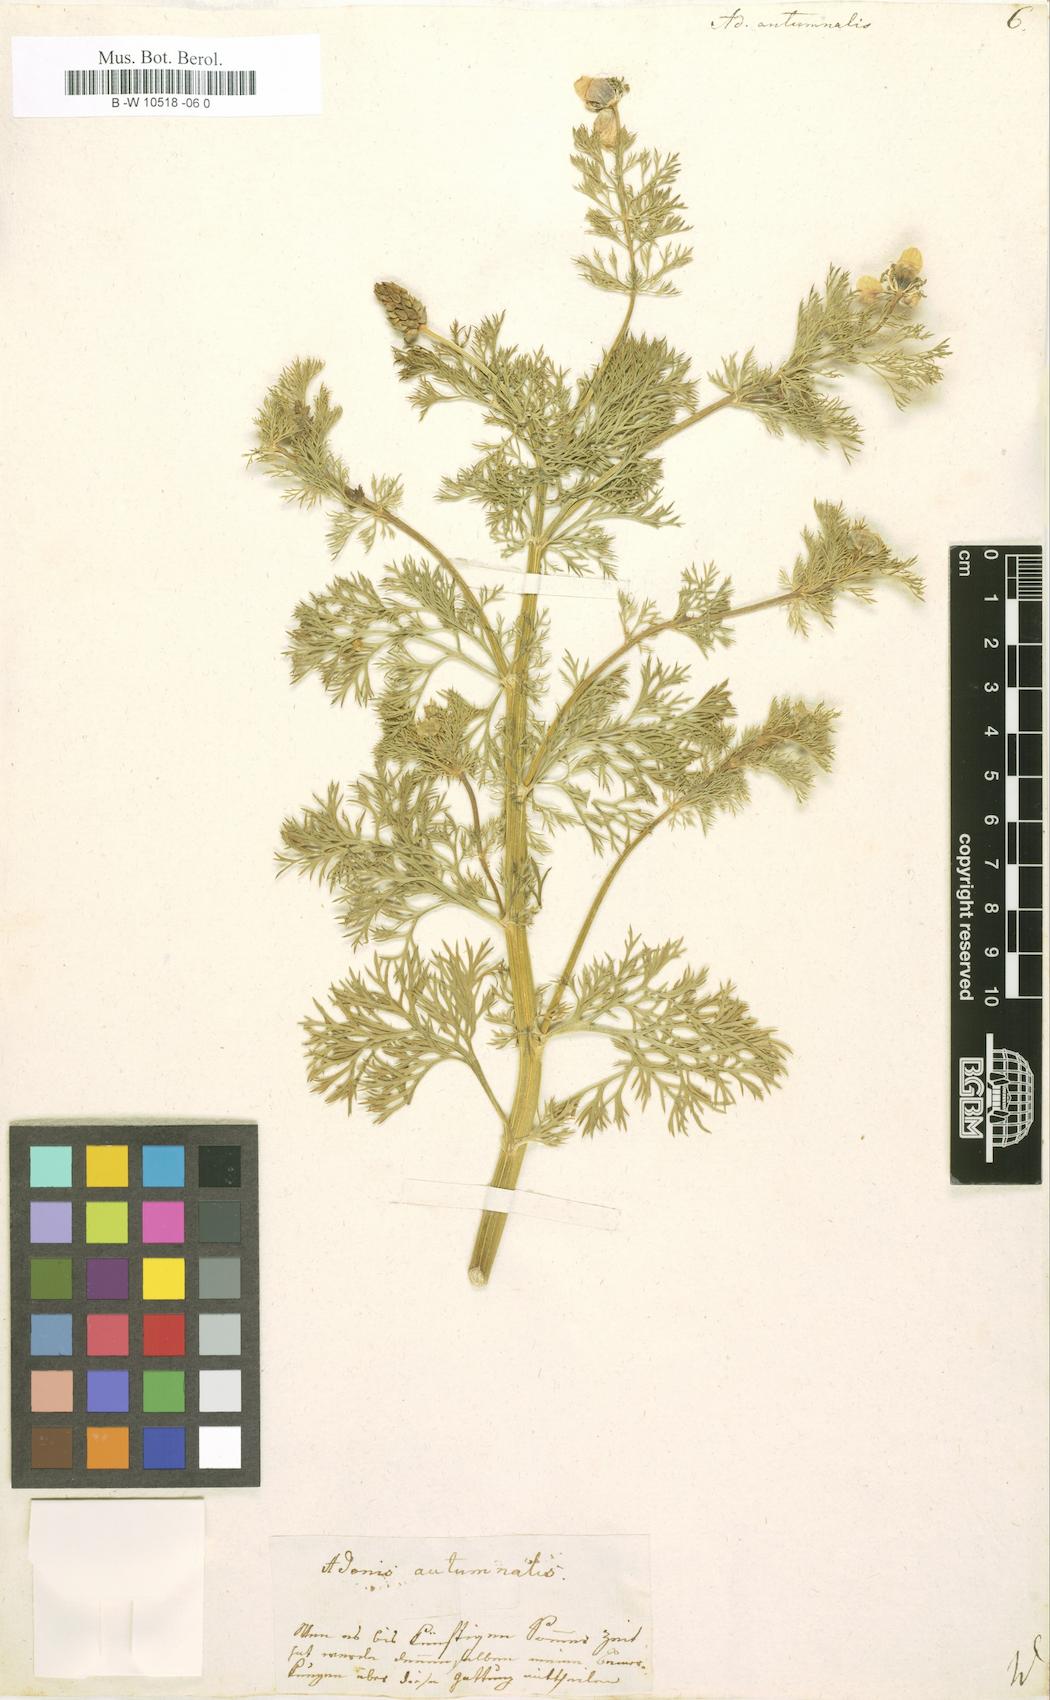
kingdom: Plantae
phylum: Tracheophyta
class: Magnoliopsida
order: Ranunculales
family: Ranunculaceae
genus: Adonis
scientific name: Adonis annua
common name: Pheasant's-eye
